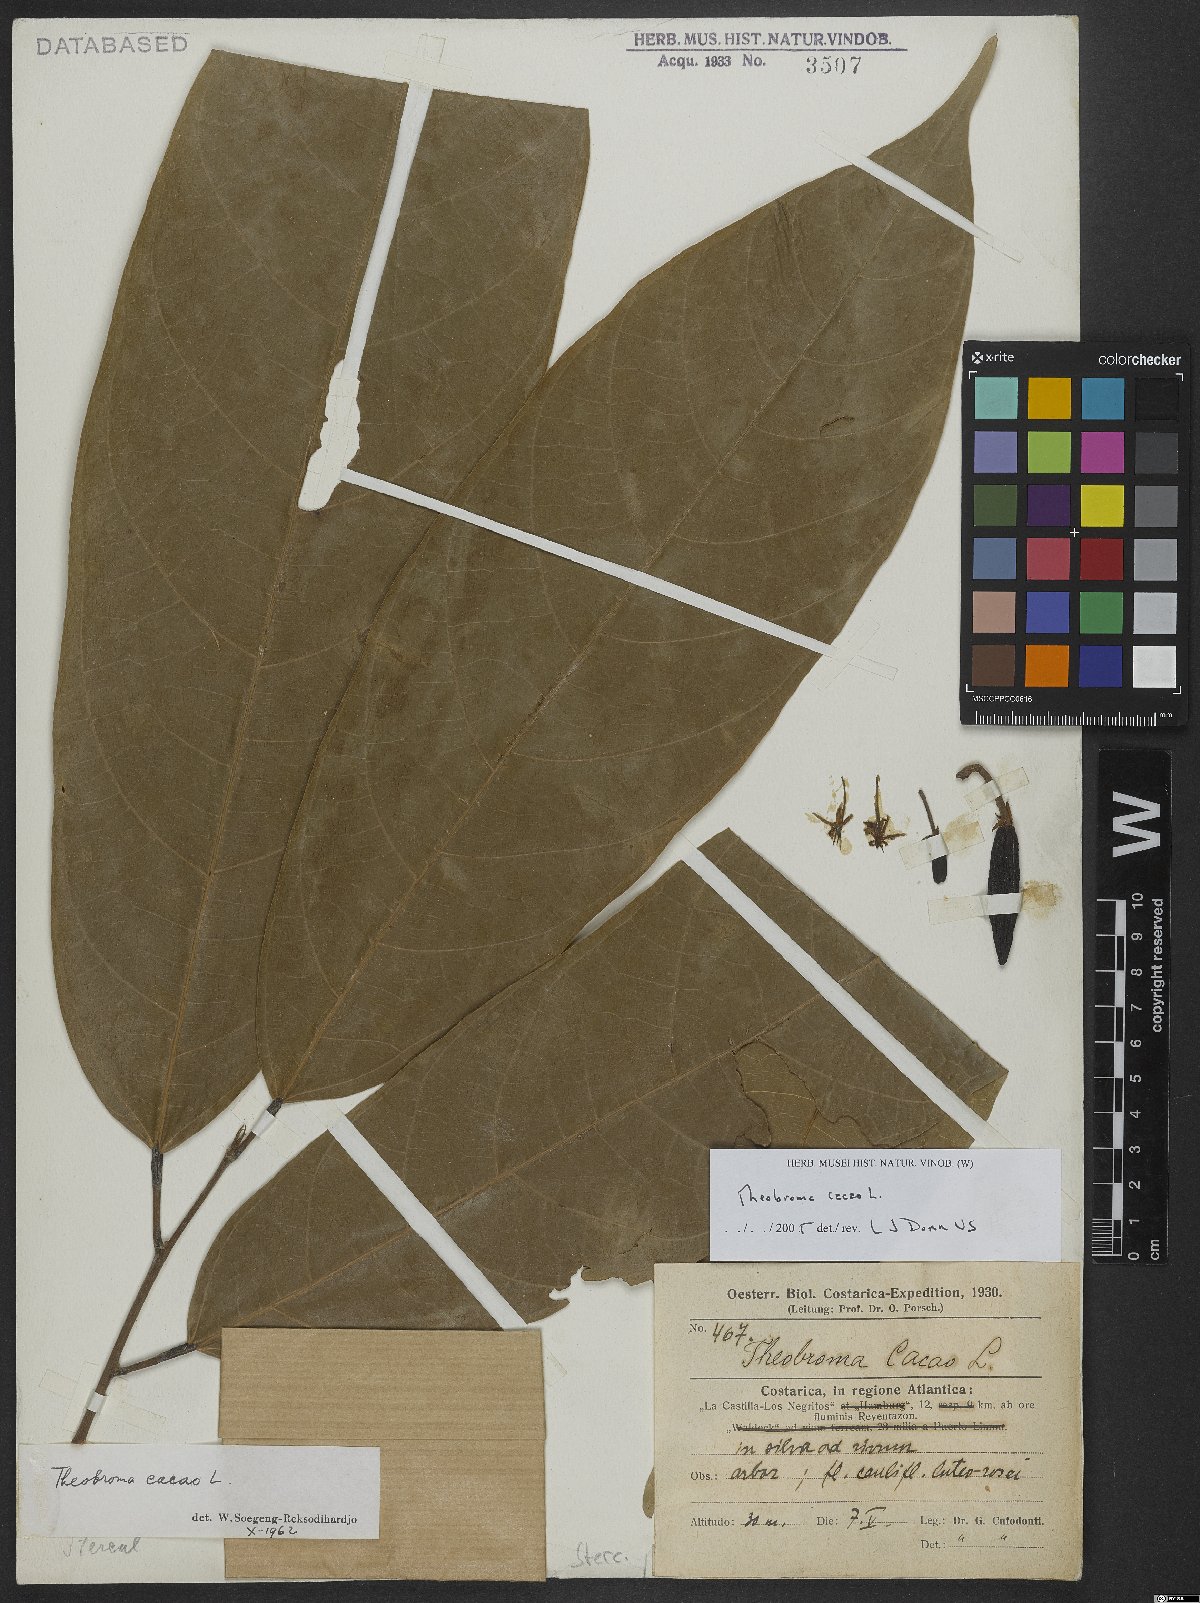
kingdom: Plantae
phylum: Tracheophyta
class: Magnoliopsida
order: Malvales
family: Malvaceae
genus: Theobroma
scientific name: Theobroma cacao
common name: Cocoa
